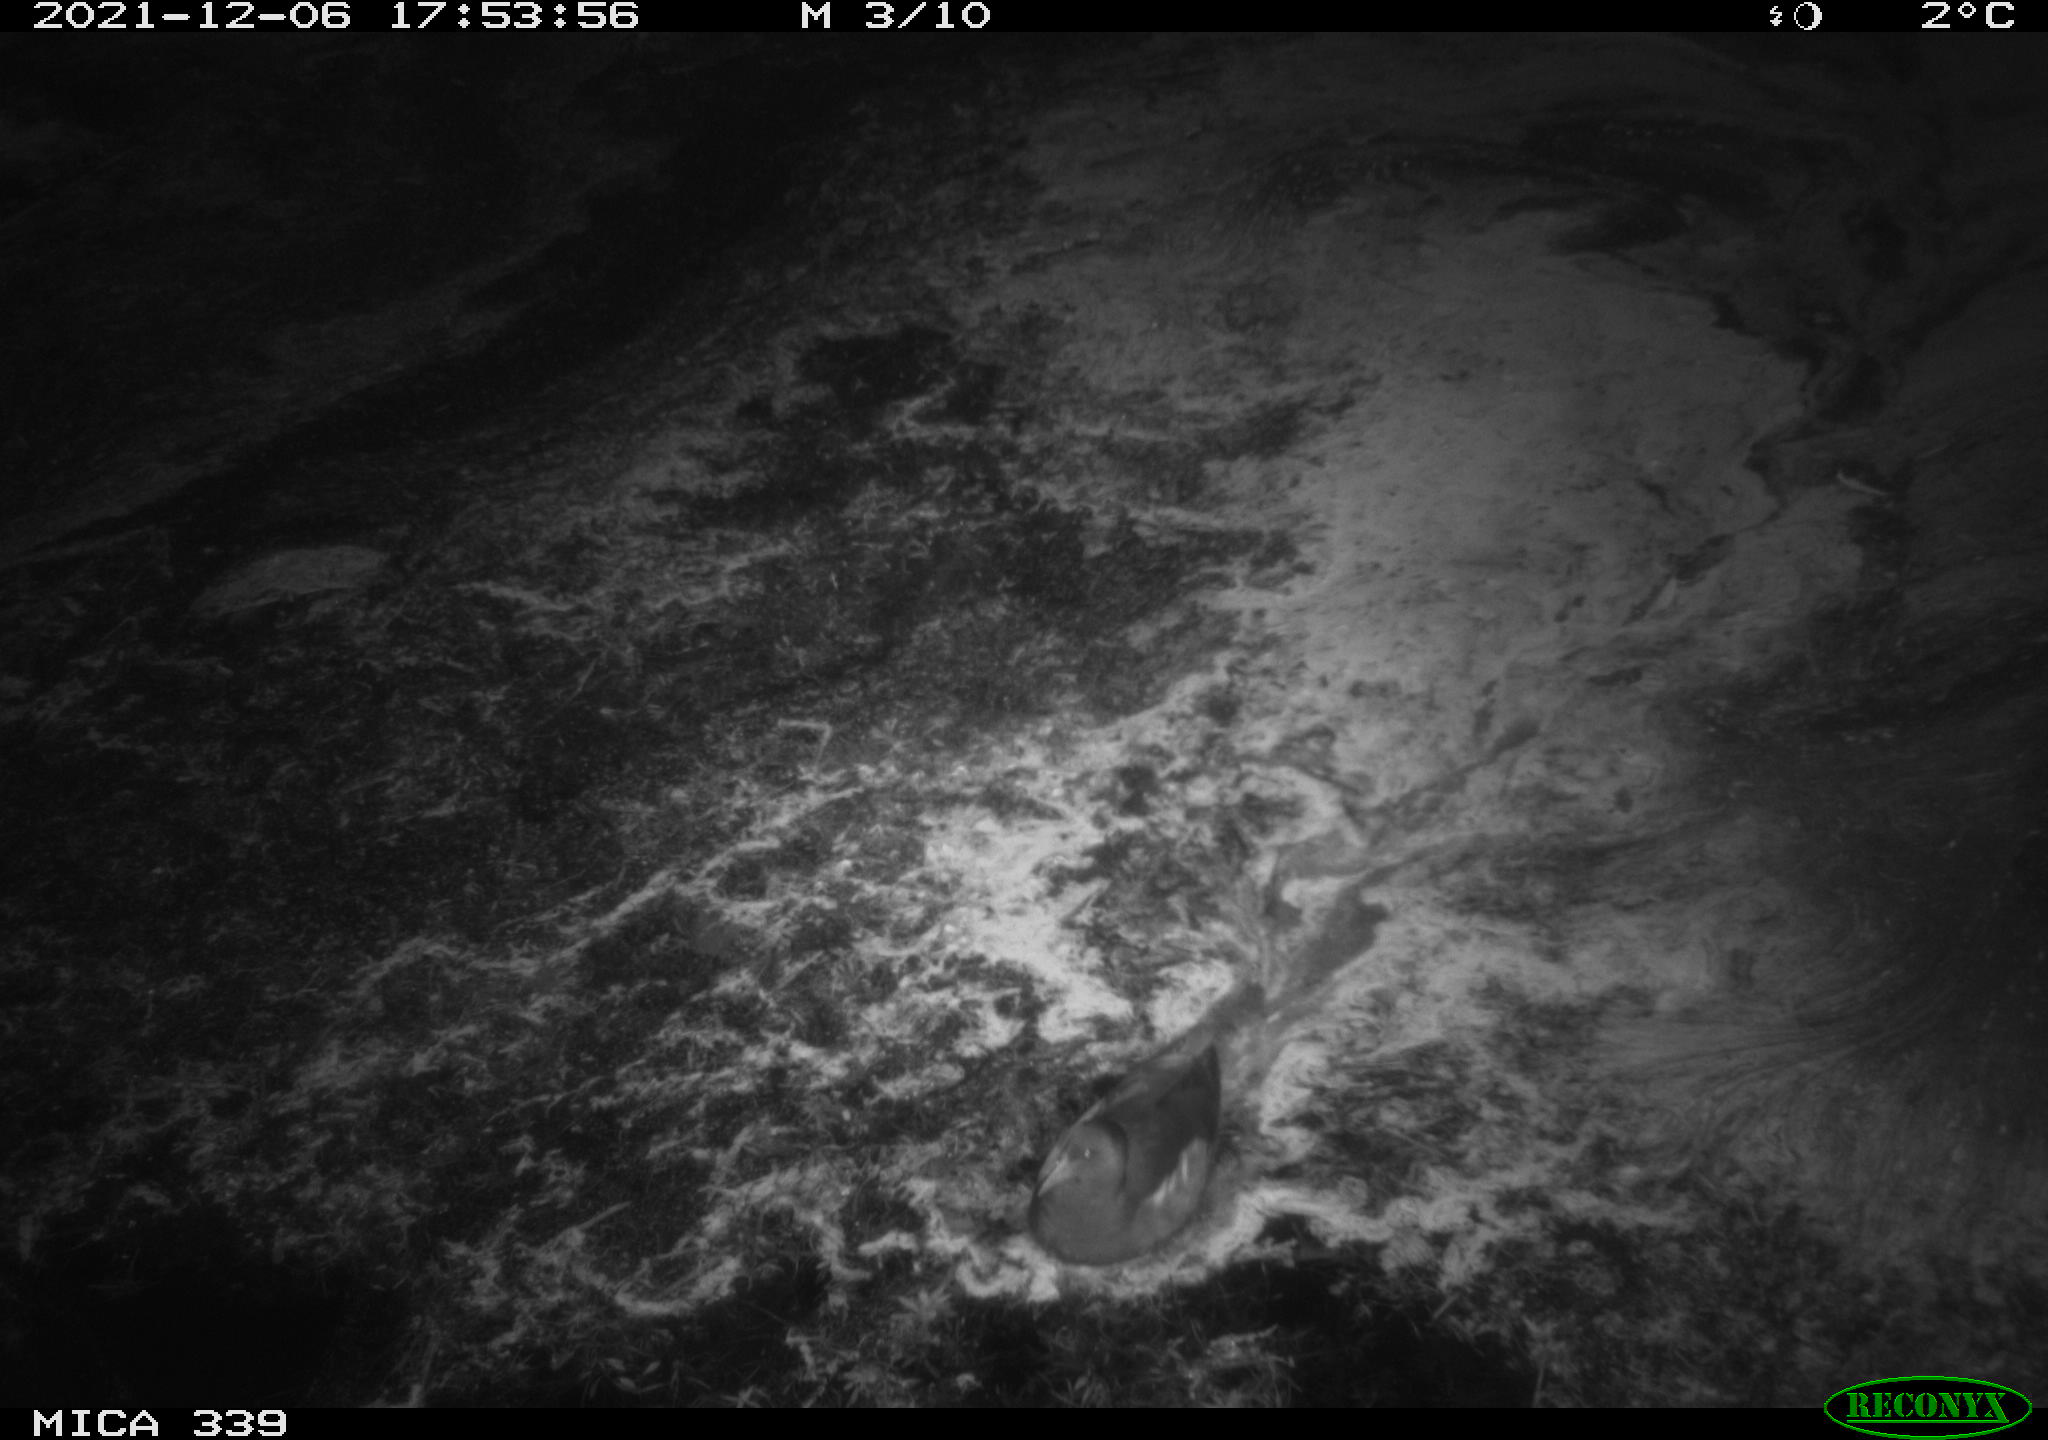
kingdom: Animalia
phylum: Chordata
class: Aves
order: Gruiformes
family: Rallidae
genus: Gallinula
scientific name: Gallinula chloropus
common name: Common moorhen
